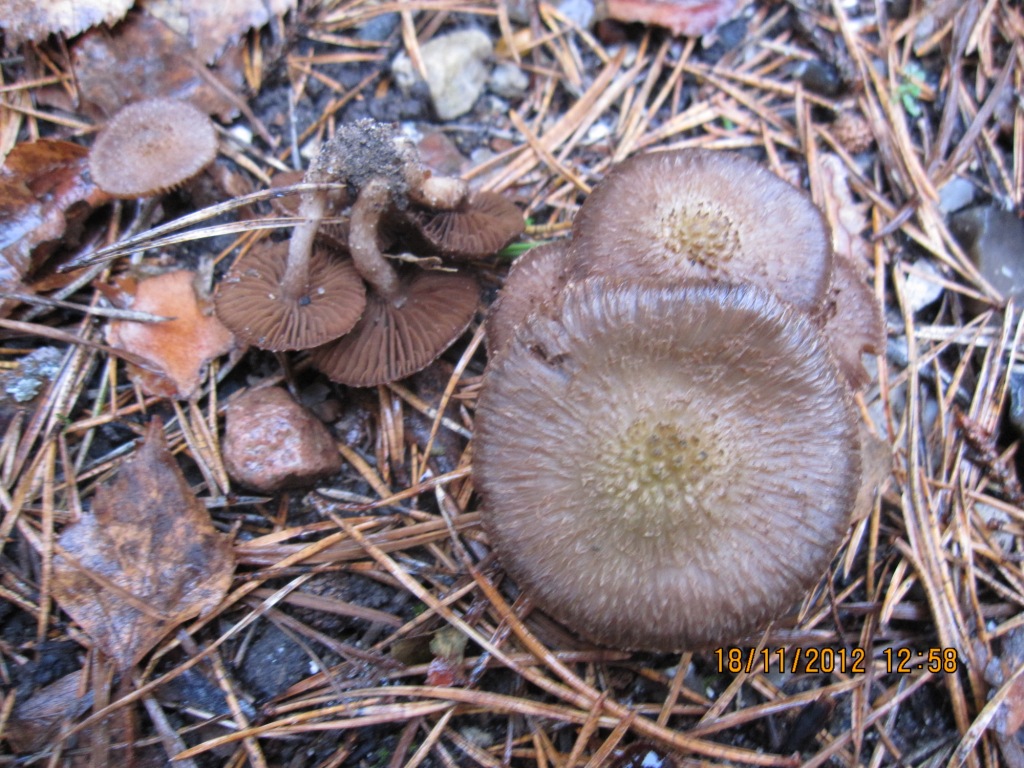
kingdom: Fungi
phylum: Basidiomycota
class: Agaricomycetes
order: Agaricales
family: Inocybaceae
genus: Inocybe
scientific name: Inocybe cincinnata
